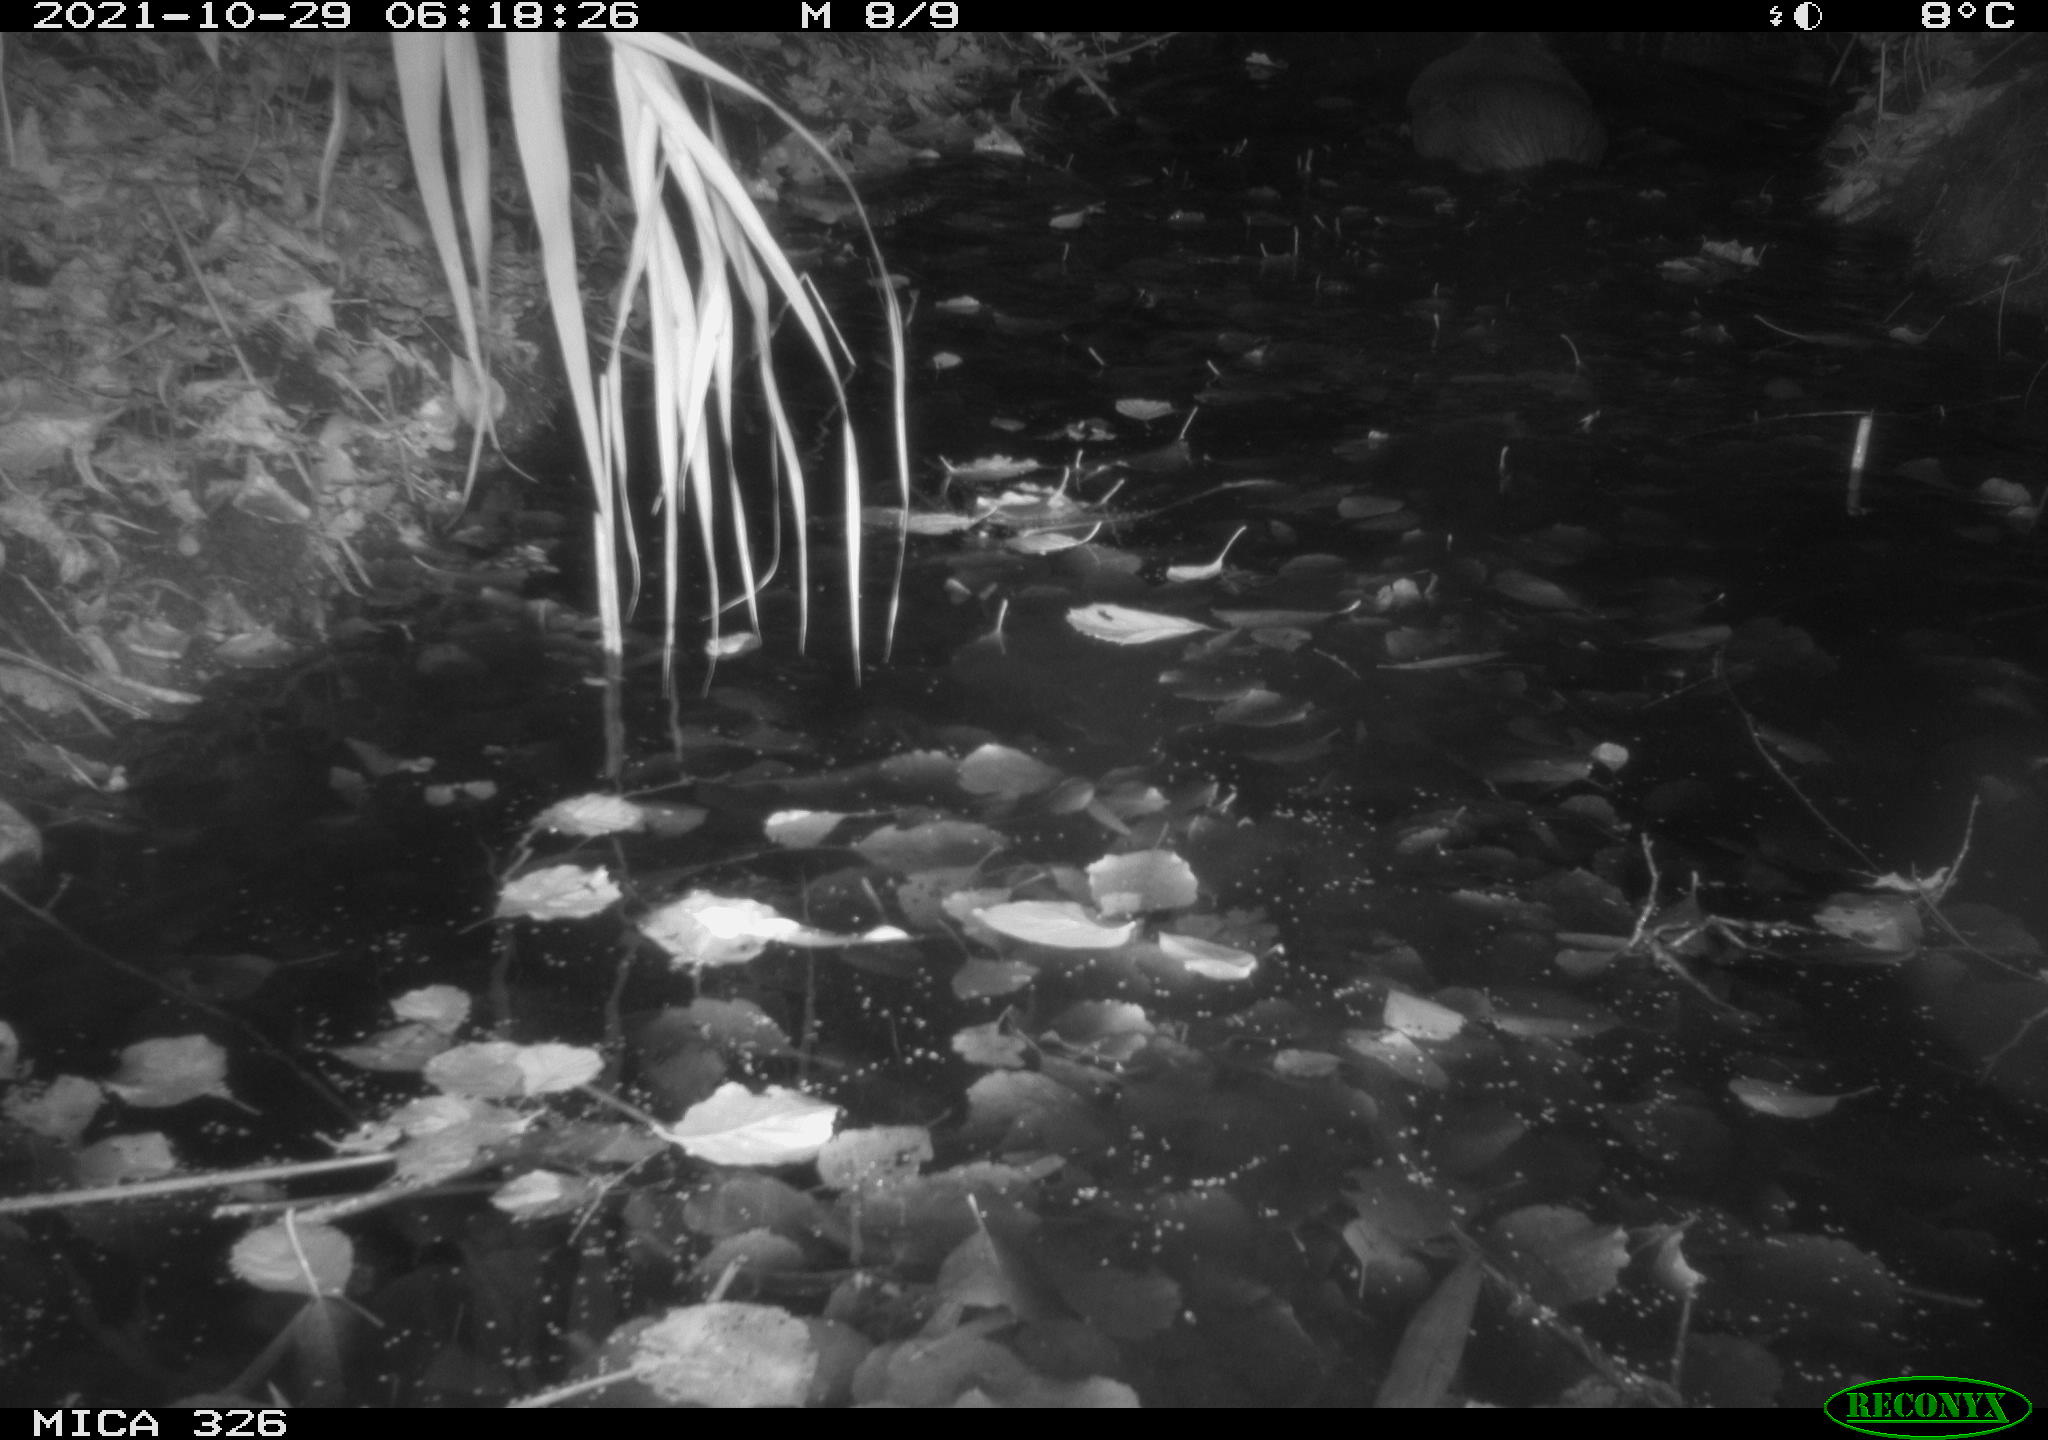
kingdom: Animalia
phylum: Chordata
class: Mammalia
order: Rodentia
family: Myocastoridae
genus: Myocastor
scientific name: Myocastor coypus
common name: Coypu
